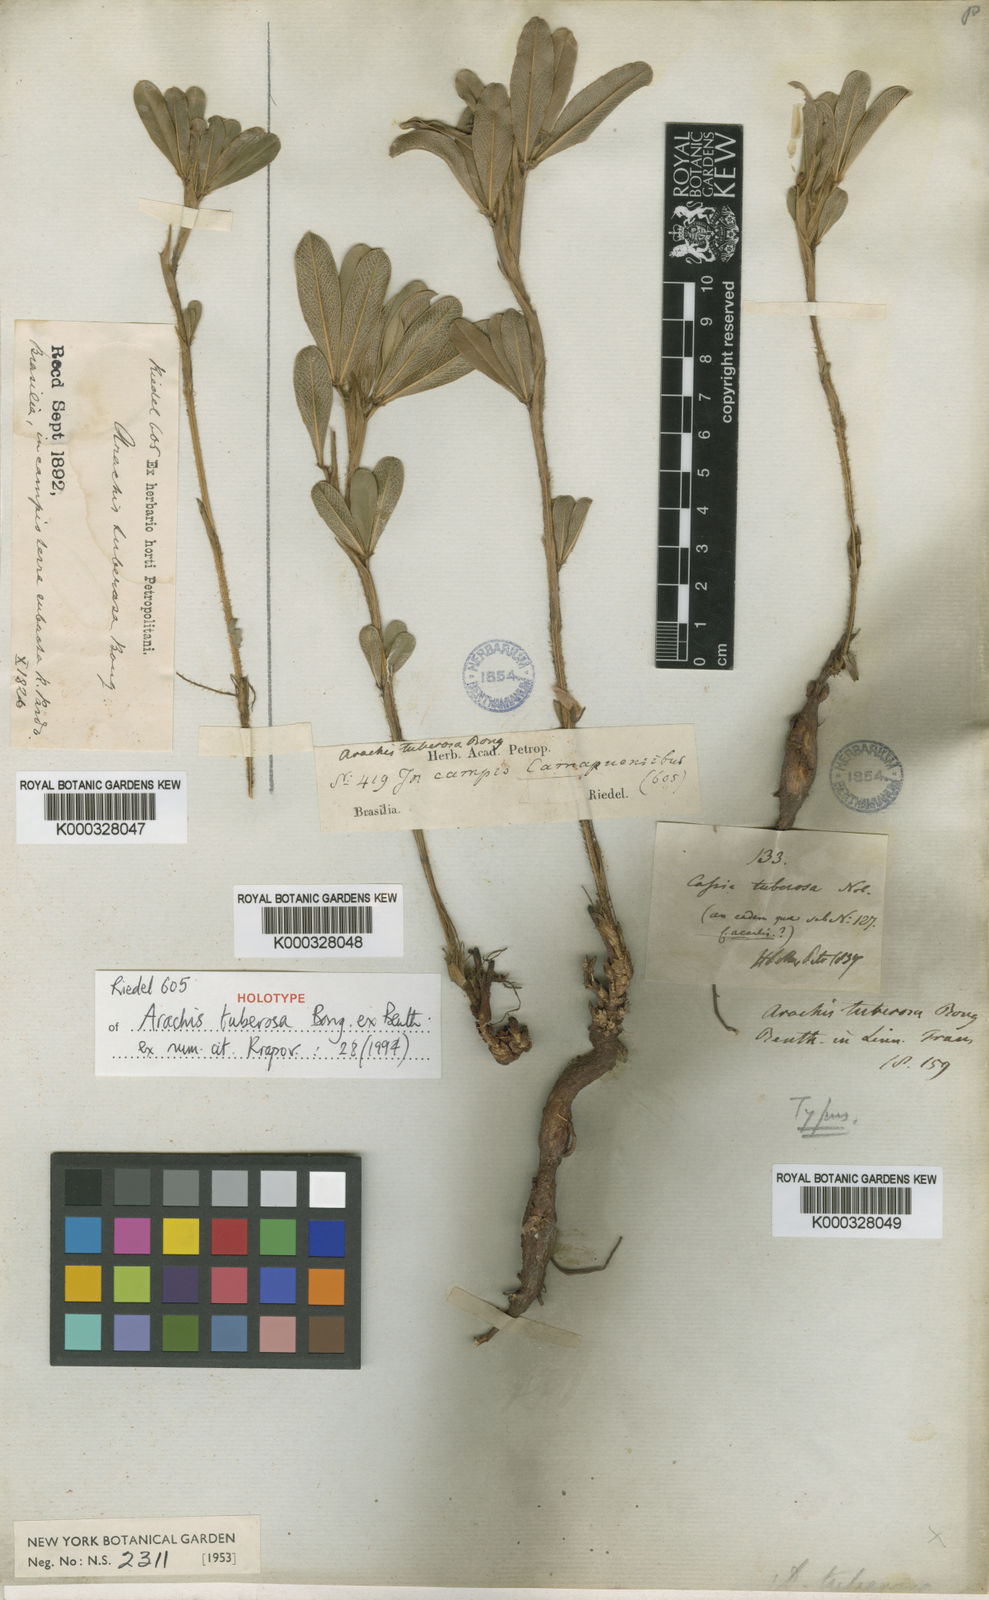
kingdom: Plantae
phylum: Tracheophyta
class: Magnoliopsida
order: Fabales
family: Fabaceae
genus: Arachis
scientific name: Arachis tuberosa
